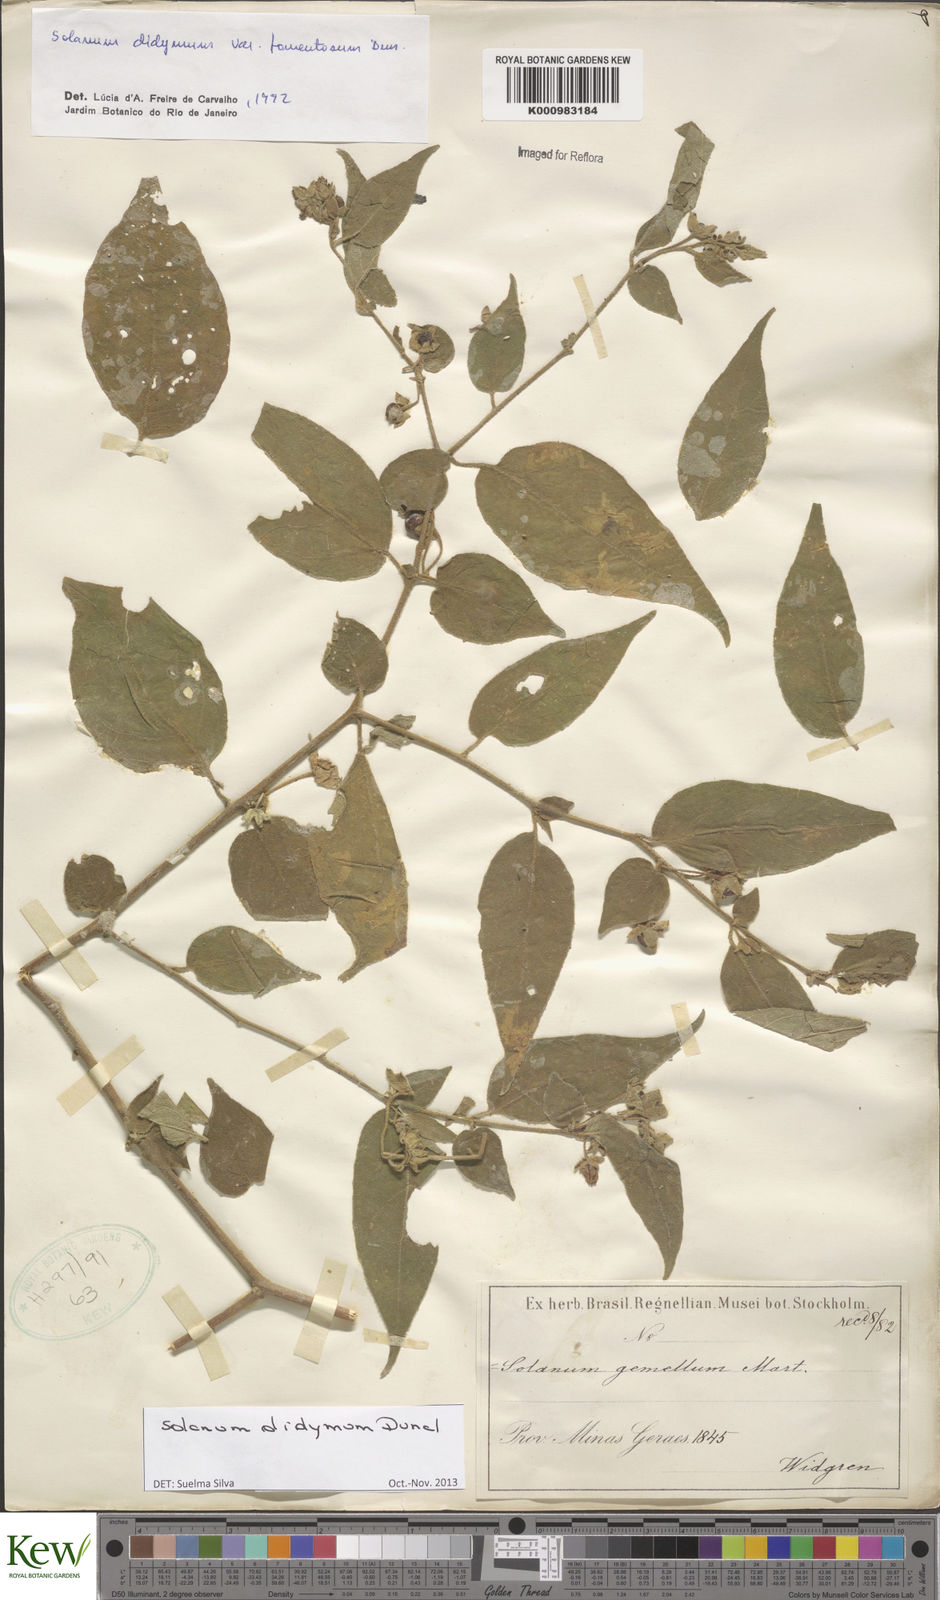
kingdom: Plantae
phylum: Tracheophyta
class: Magnoliopsida
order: Solanales
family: Solanaceae
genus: Solanum
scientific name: Solanum didymum
